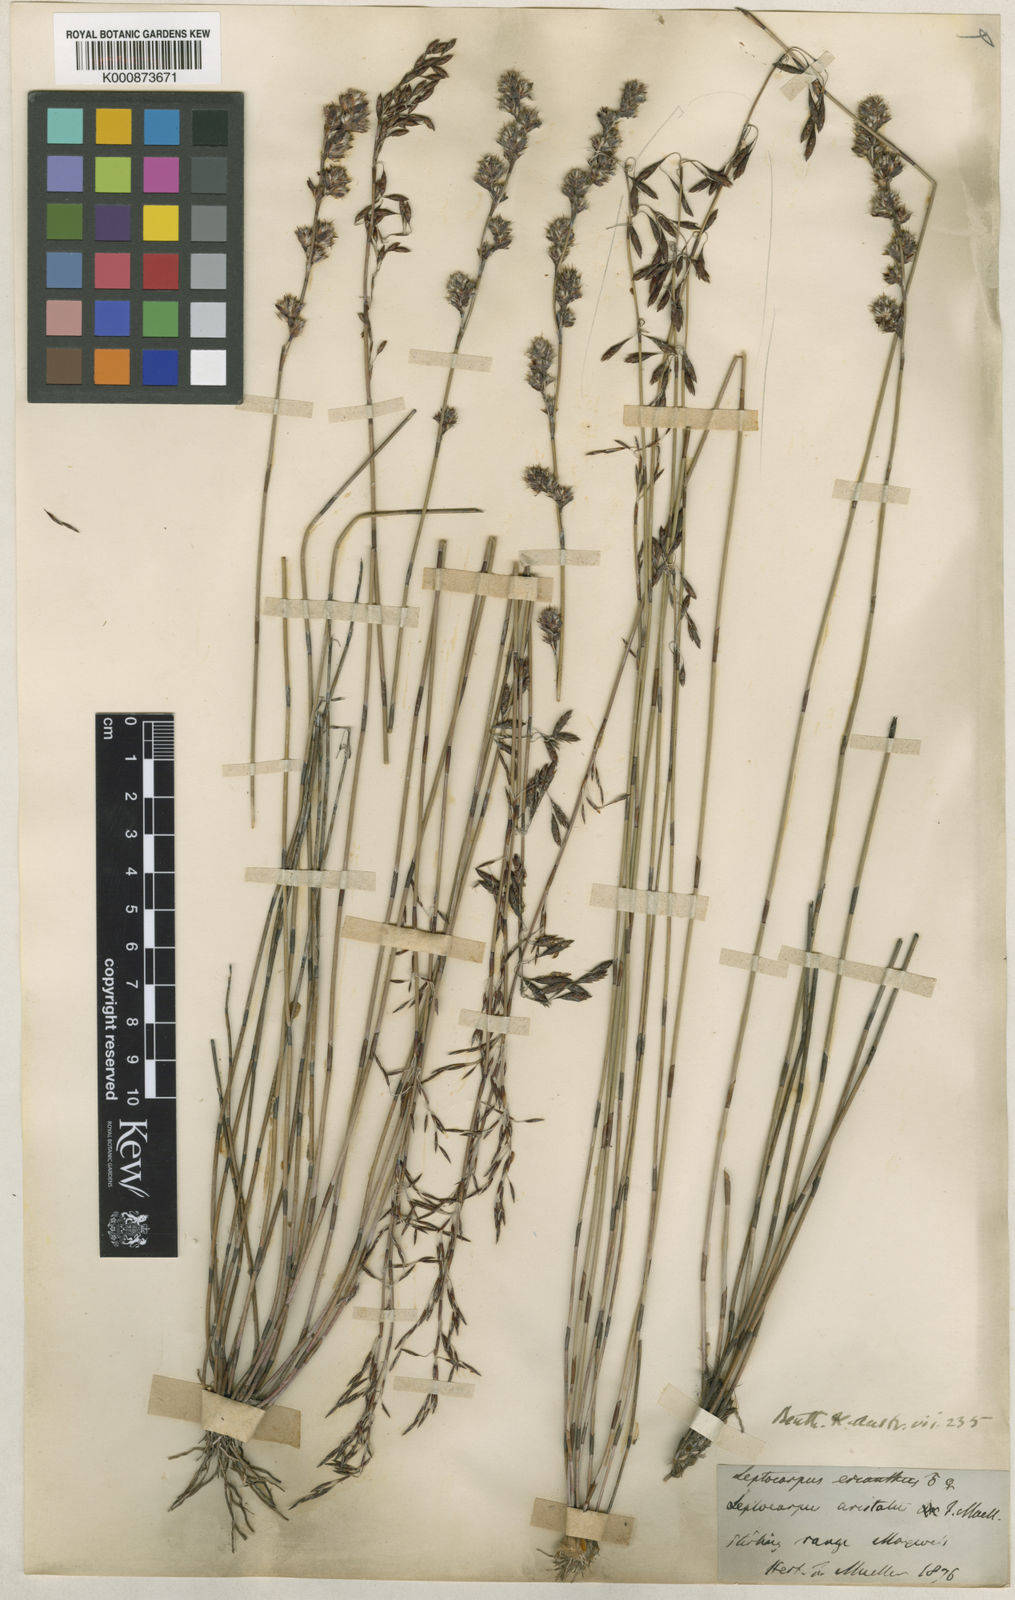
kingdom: Plantae
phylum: Tracheophyta
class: Liliopsida
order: Poales
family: Restionaceae
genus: Chaetanthus
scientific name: Chaetanthus aristatus
